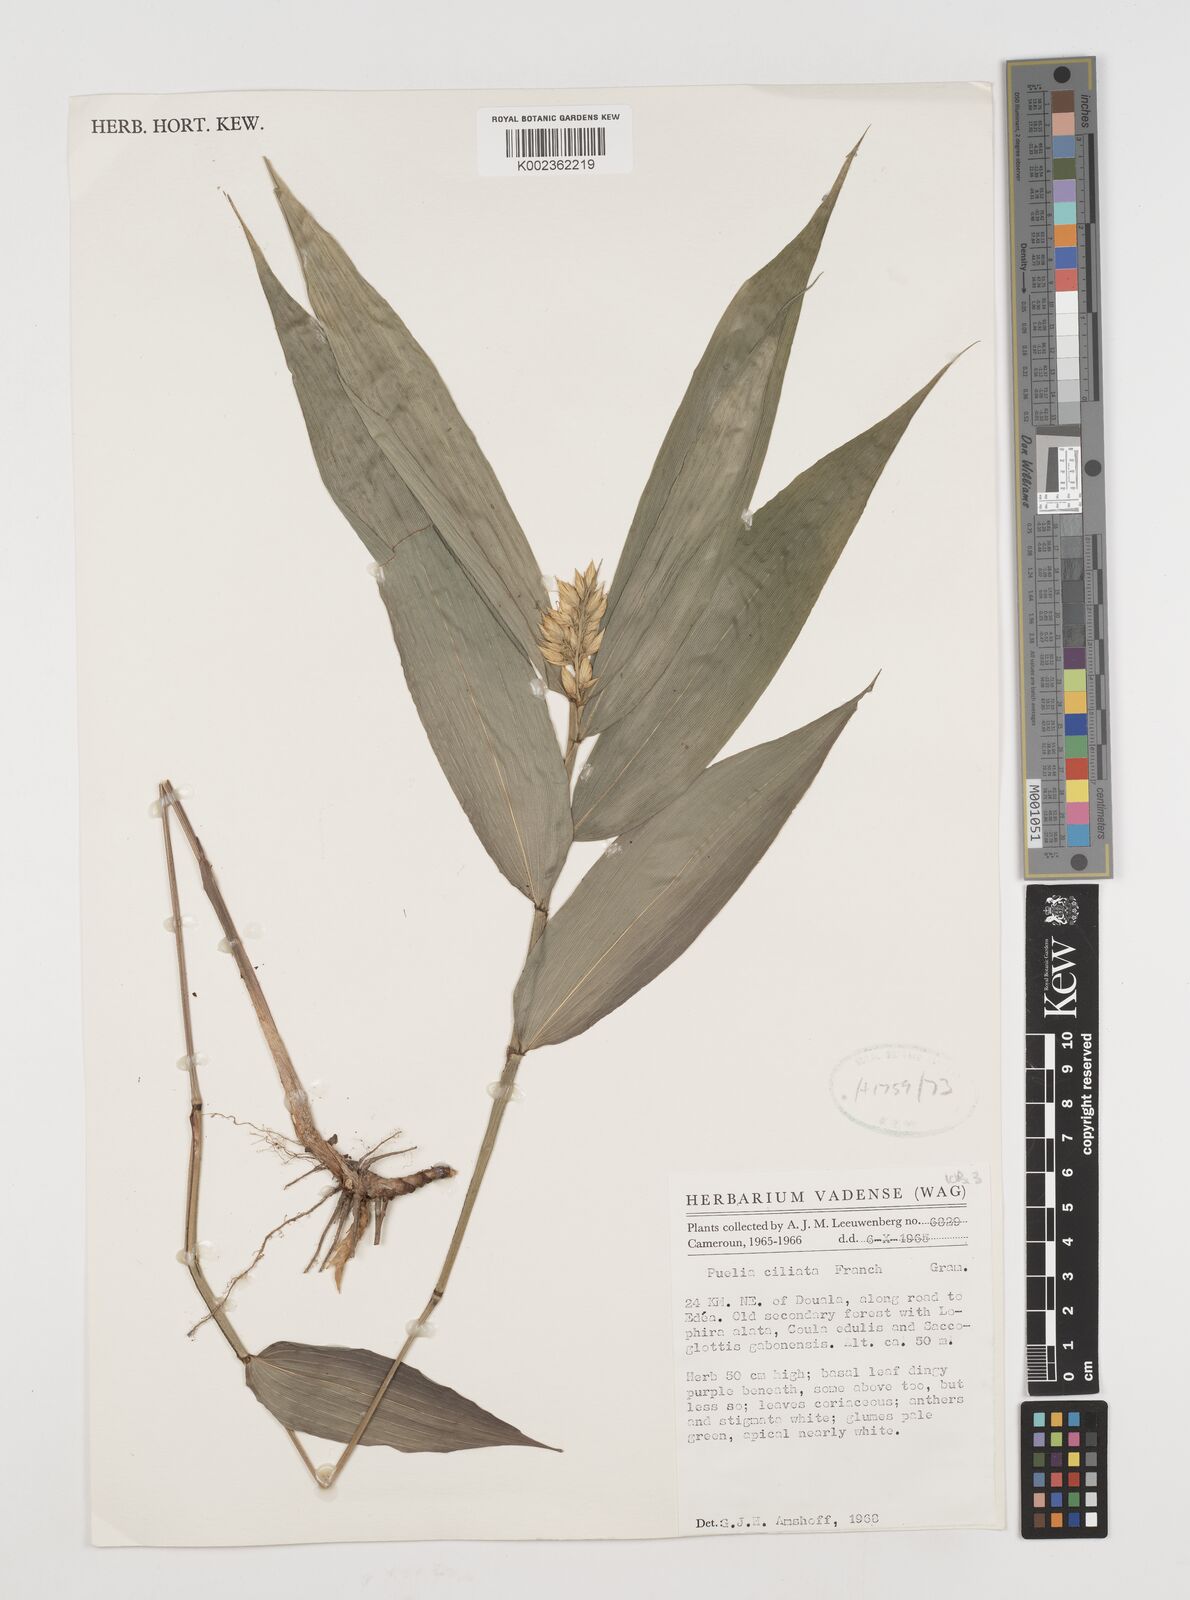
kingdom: Plantae
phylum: Tracheophyta
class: Liliopsida
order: Poales
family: Poaceae
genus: Puelia
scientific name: Puelia ciliata
